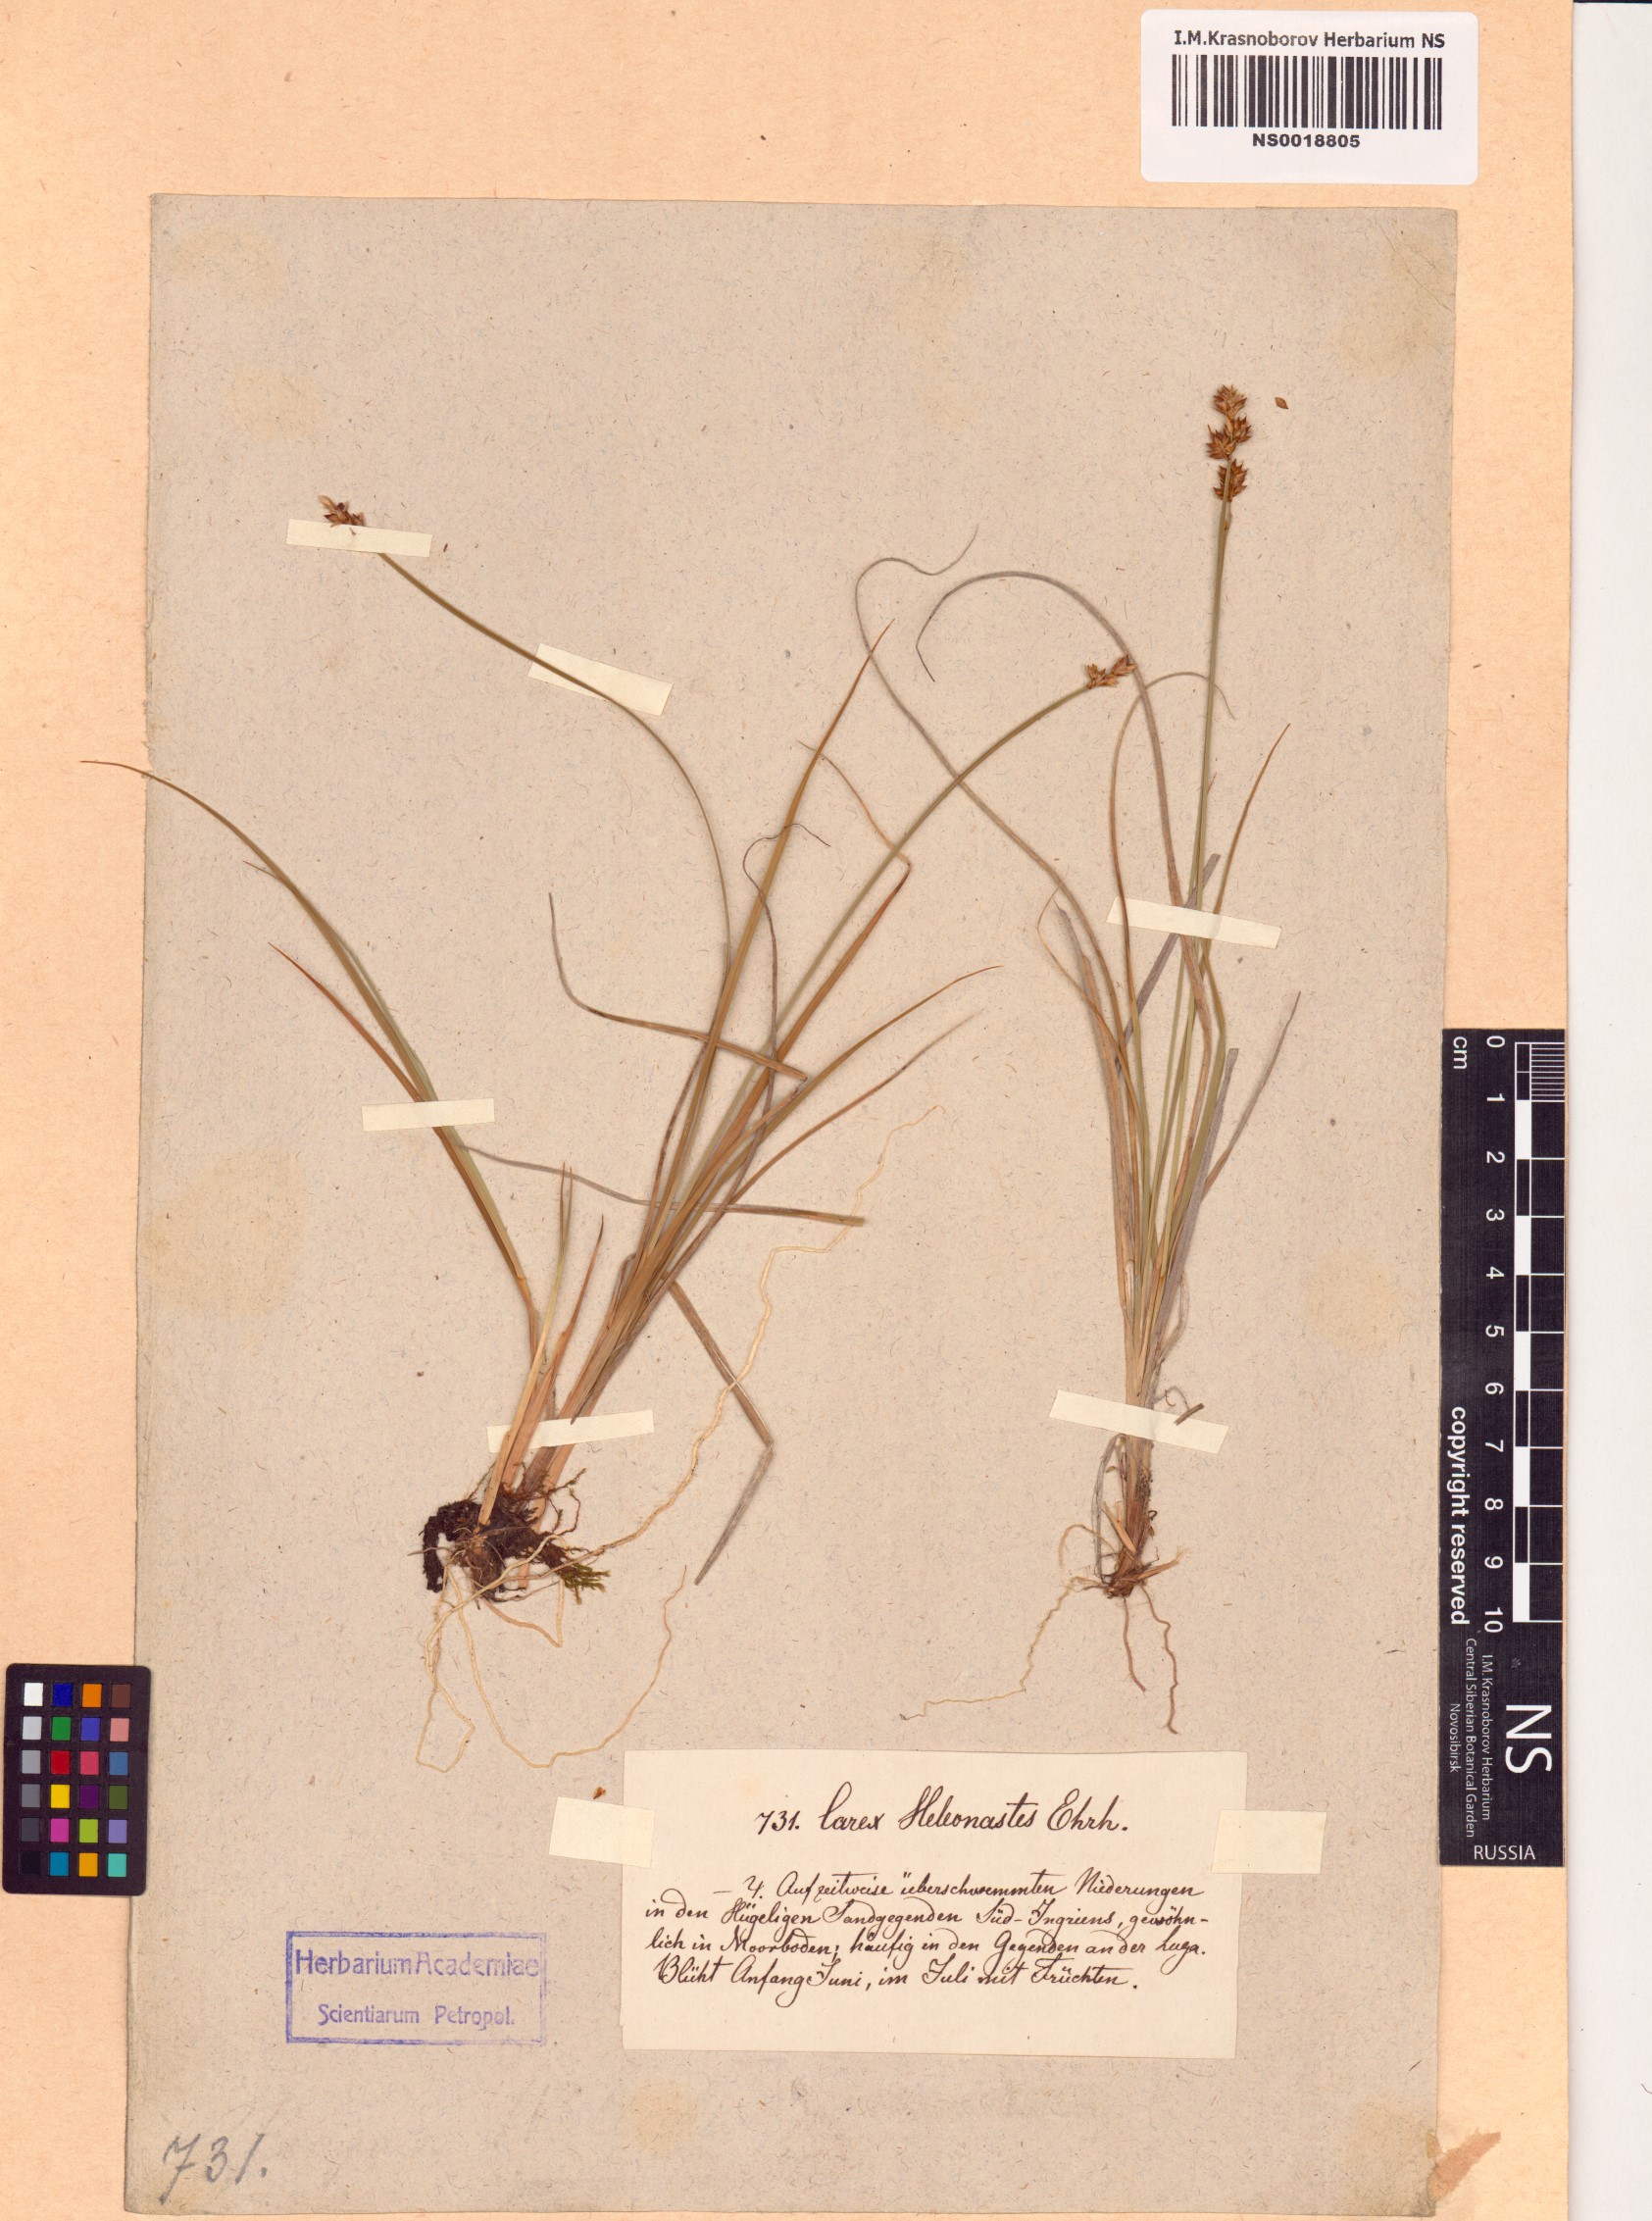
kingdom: Plantae
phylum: Tracheophyta
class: Liliopsida
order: Poales
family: Cyperaceae
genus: Carex
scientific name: Carex heleonastes
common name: Hudson bay sedge
